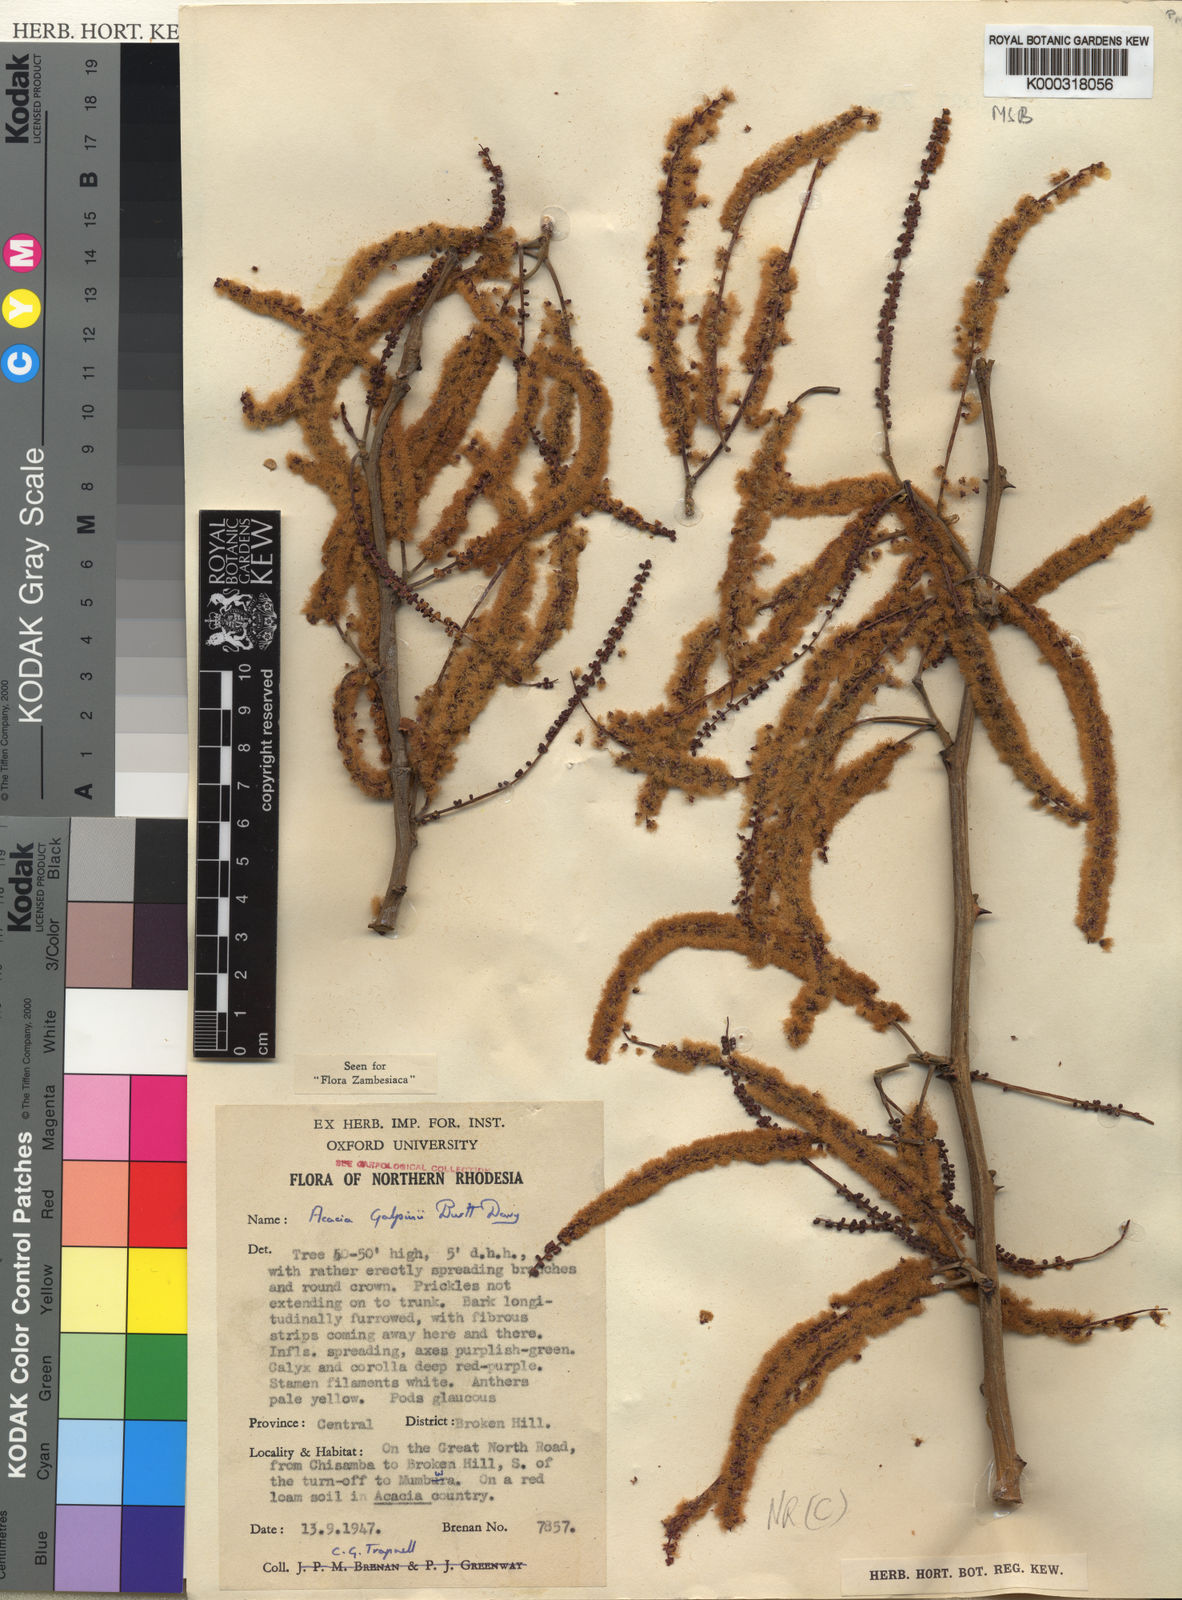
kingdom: Plantae
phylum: Tracheophyta
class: Magnoliopsida
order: Fabales
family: Fabaceae
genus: Senegalia
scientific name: Senegalia galpinii
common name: Monkey-thorn
